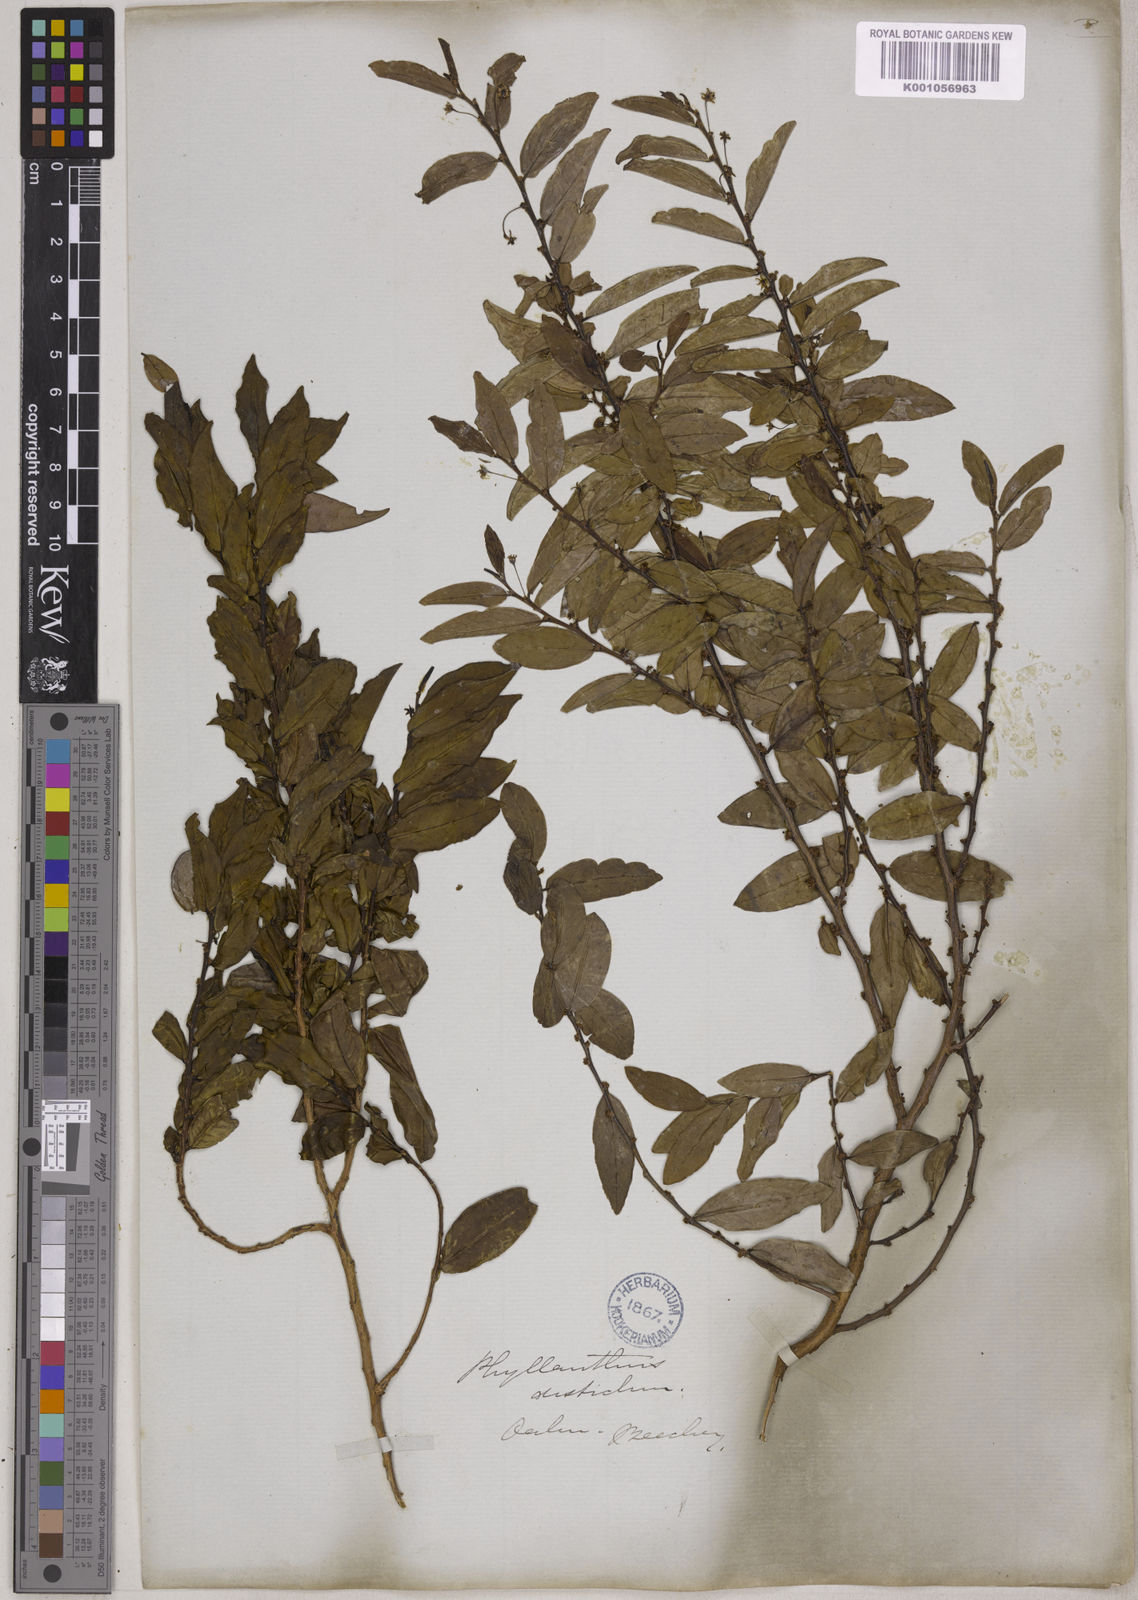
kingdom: Plantae
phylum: Tracheophyta
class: Magnoliopsida
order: Malpighiales
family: Phyllanthaceae
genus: Phyllanthus
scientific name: Phyllanthus distichus
